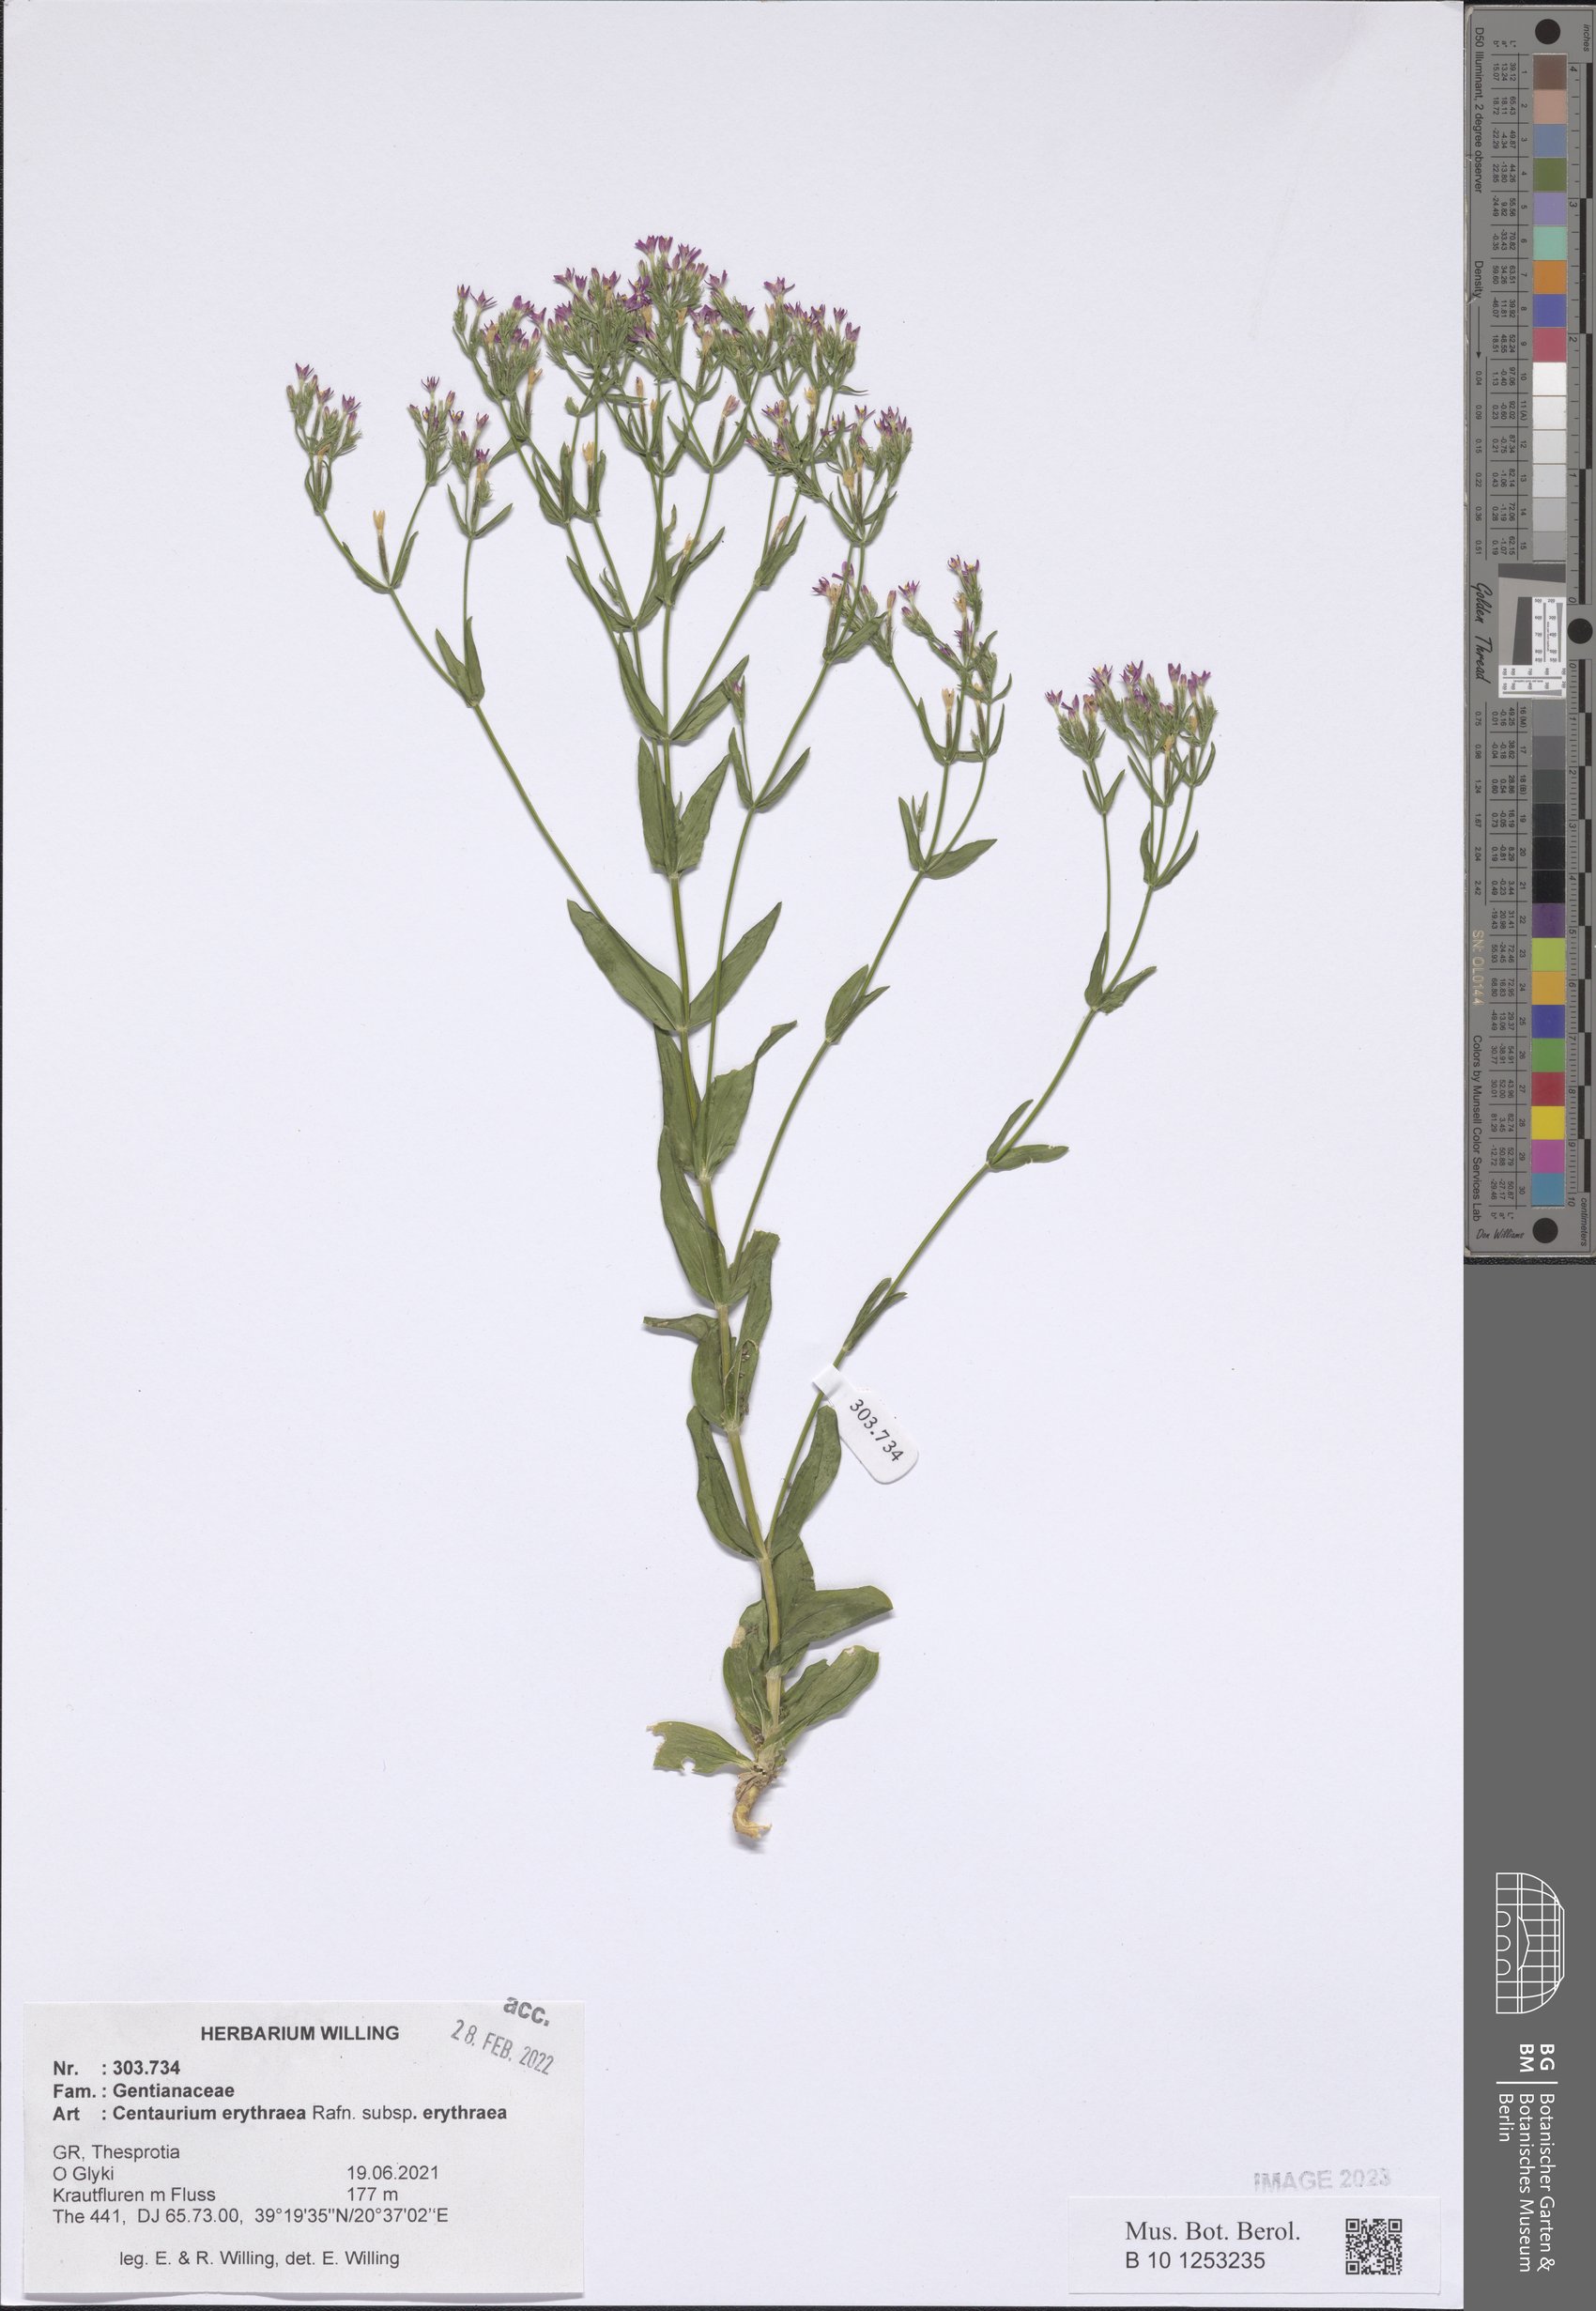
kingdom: Plantae
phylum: Tracheophyta
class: Magnoliopsida
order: Gentianales
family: Gentianaceae
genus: Centaurium
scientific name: Centaurium erythraea
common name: Common centaury
